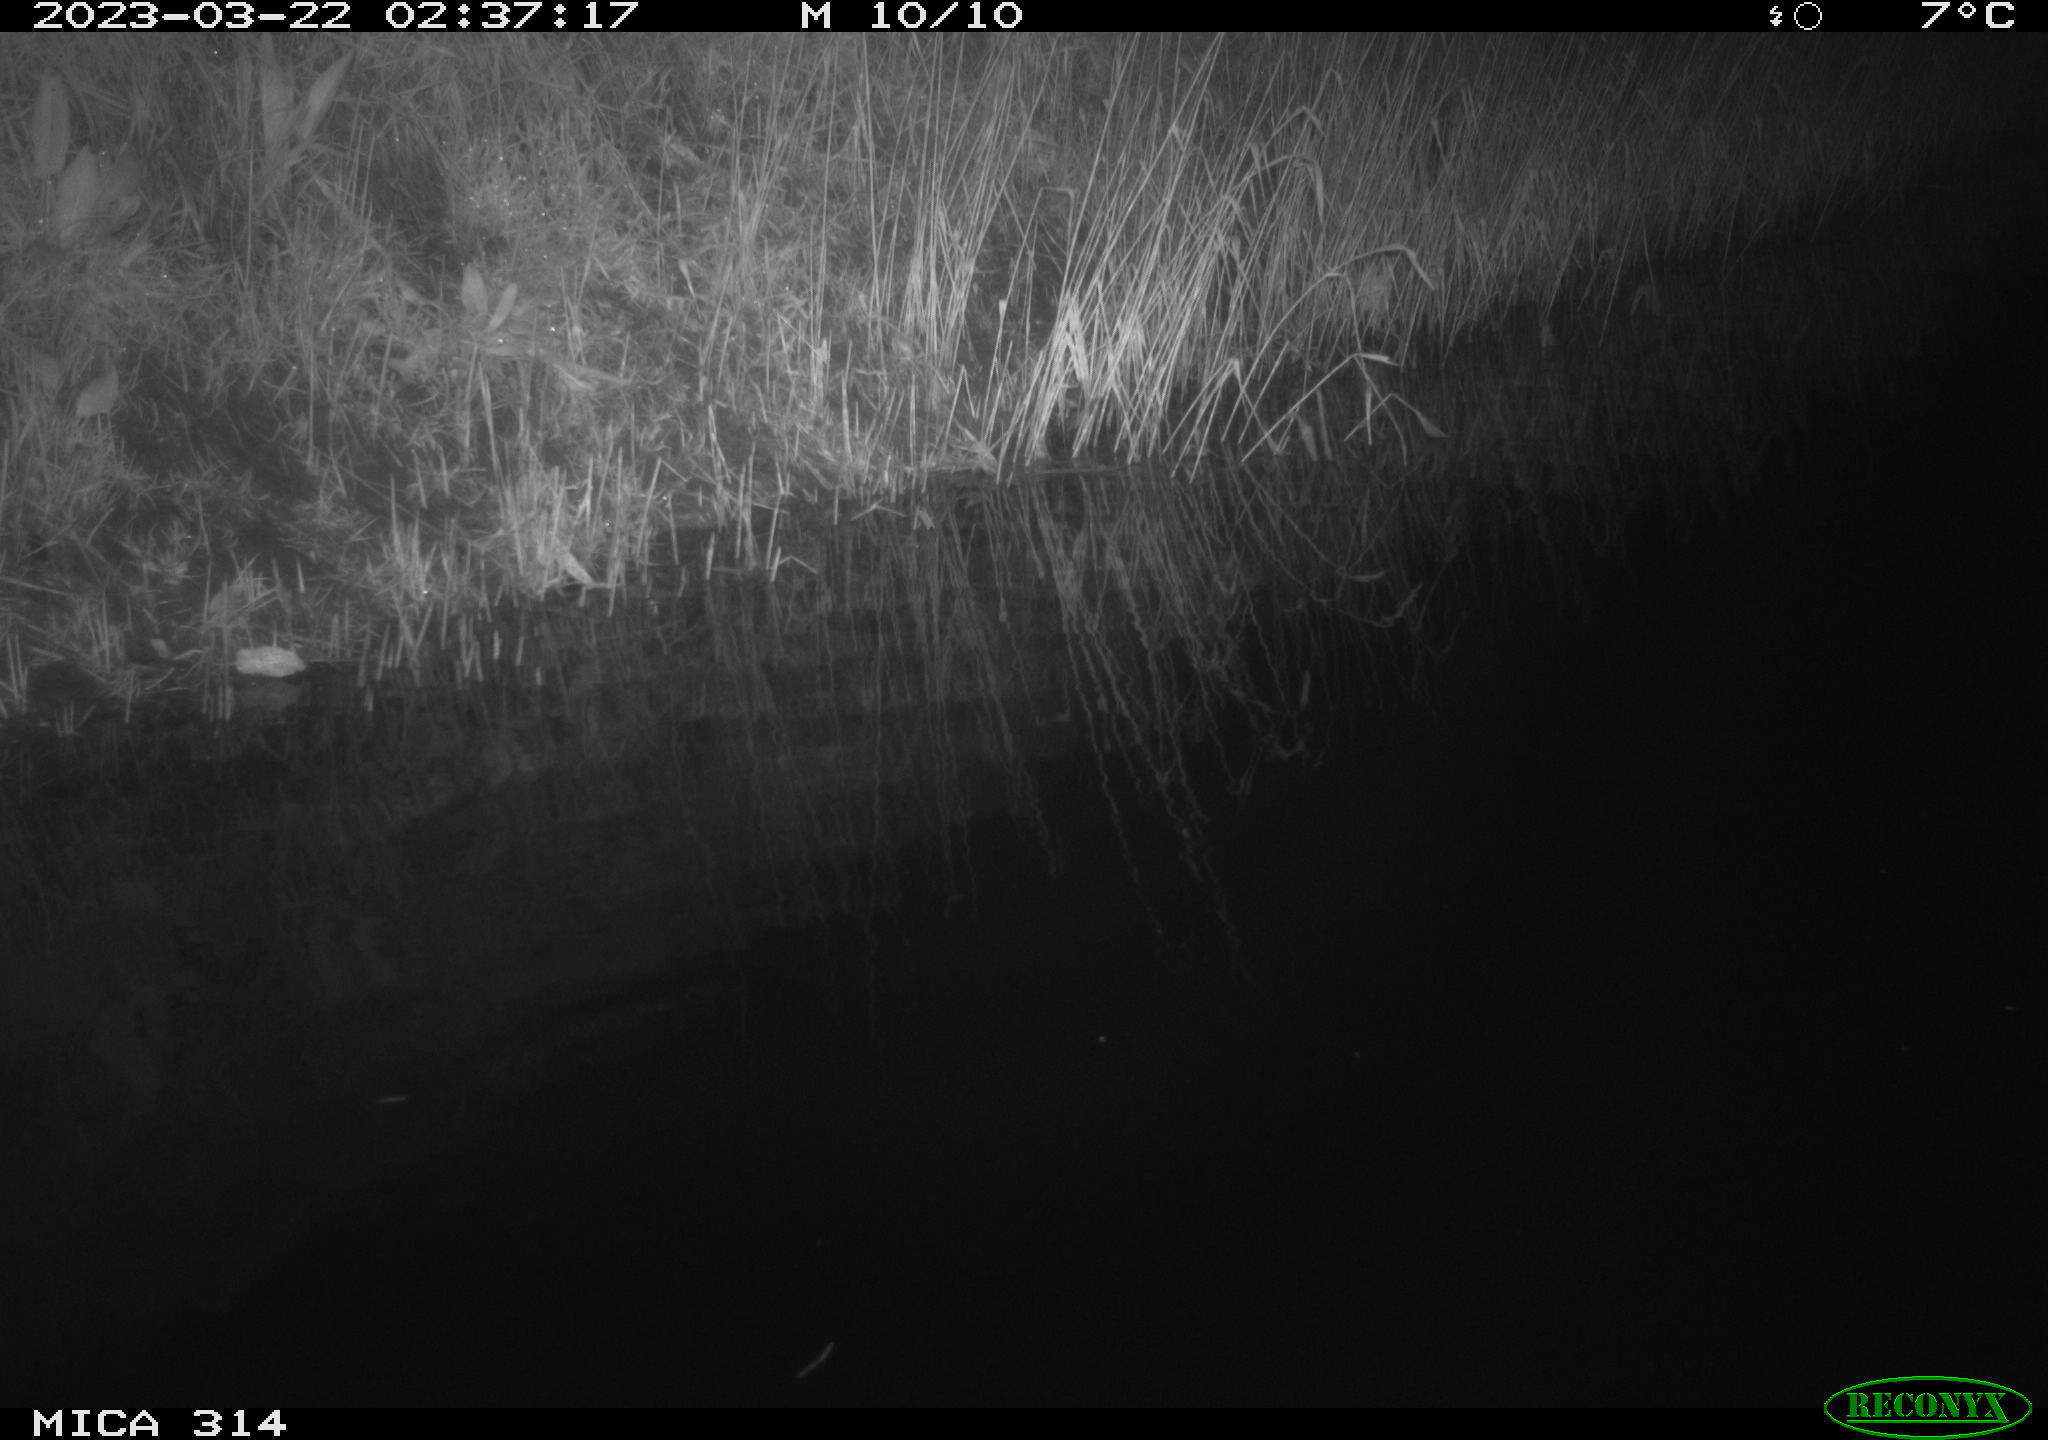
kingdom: Animalia
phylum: Chordata
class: Aves
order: Anseriformes
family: Anatidae
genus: Anas
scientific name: Anas
